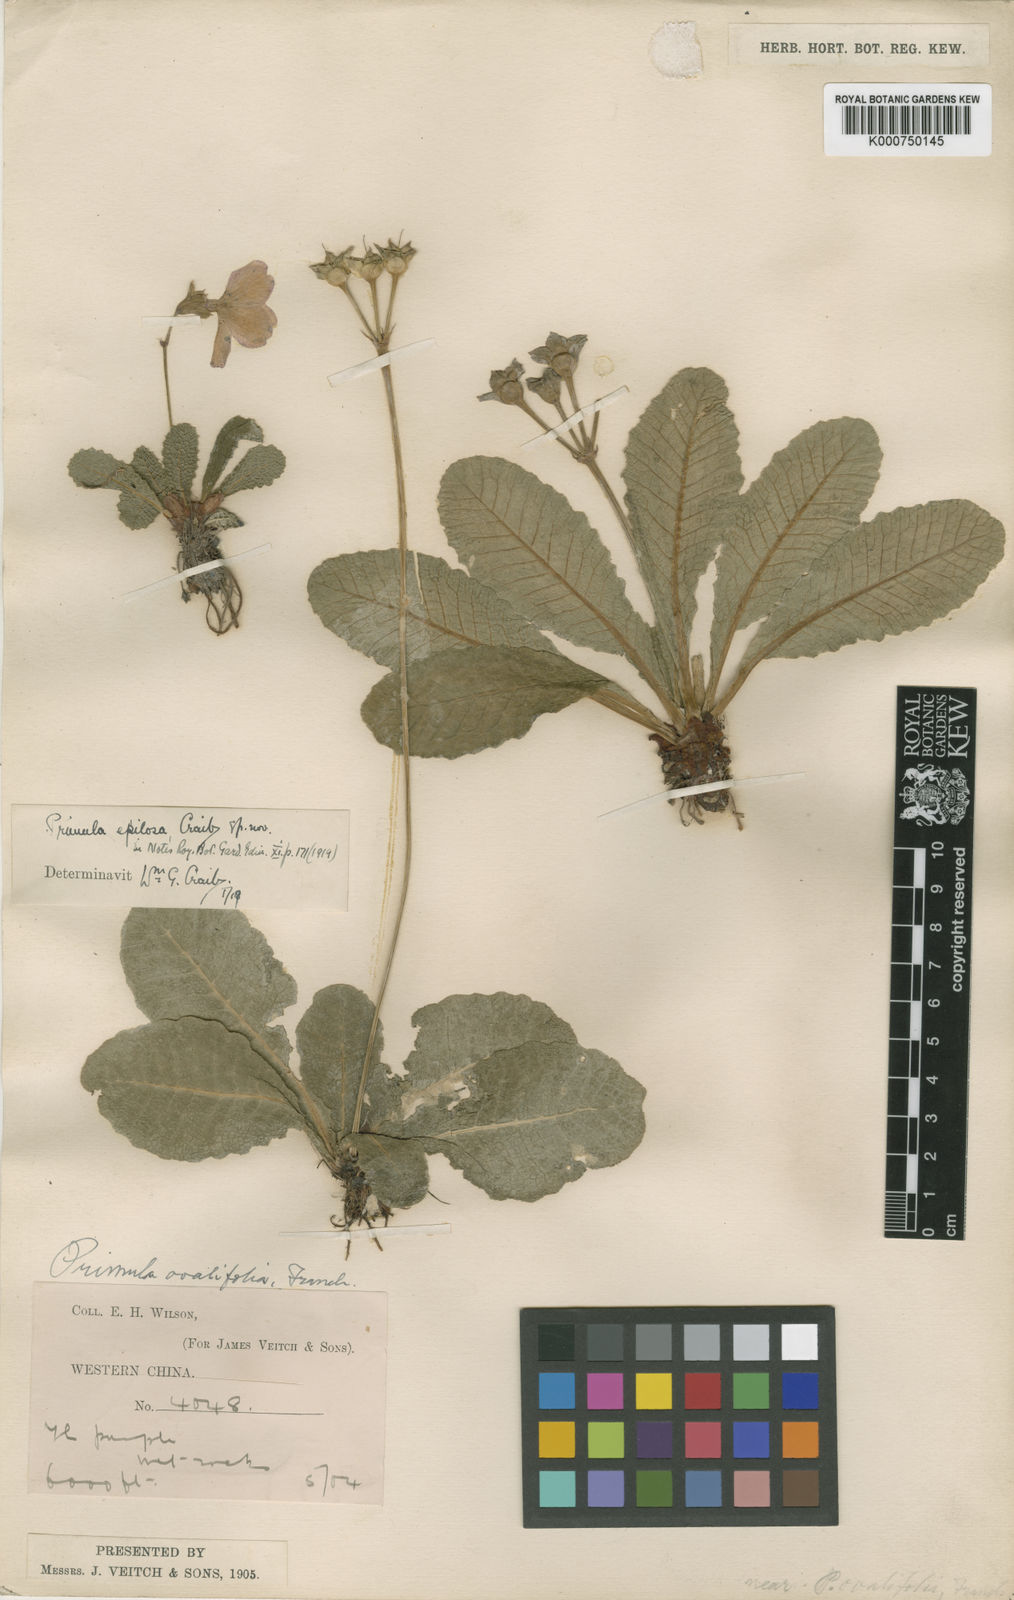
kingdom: Plantae
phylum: Tracheophyta
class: Magnoliopsida
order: Ericales
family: Primulaceae
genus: Primula
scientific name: Primula epilosa
